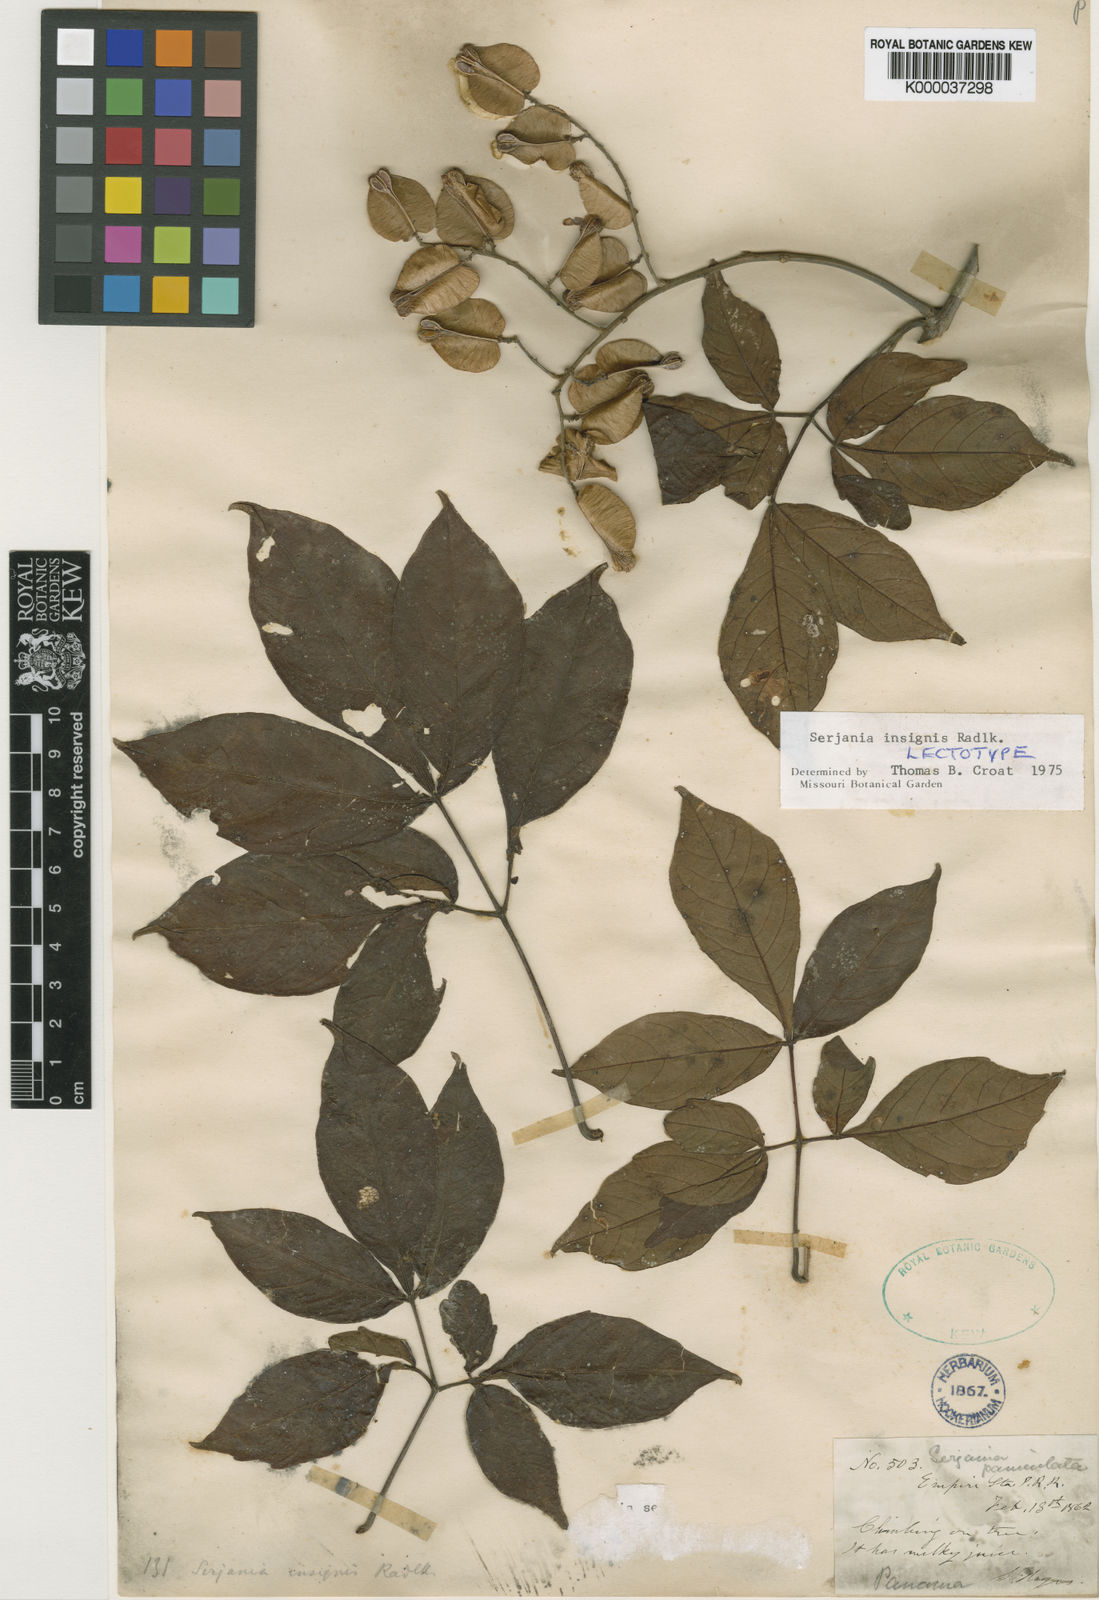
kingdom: Plantae
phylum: Tracheophyta
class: Magnoliopsida
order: Sapindales
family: Sapindaceae
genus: Serjania
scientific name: Serjania acuta
